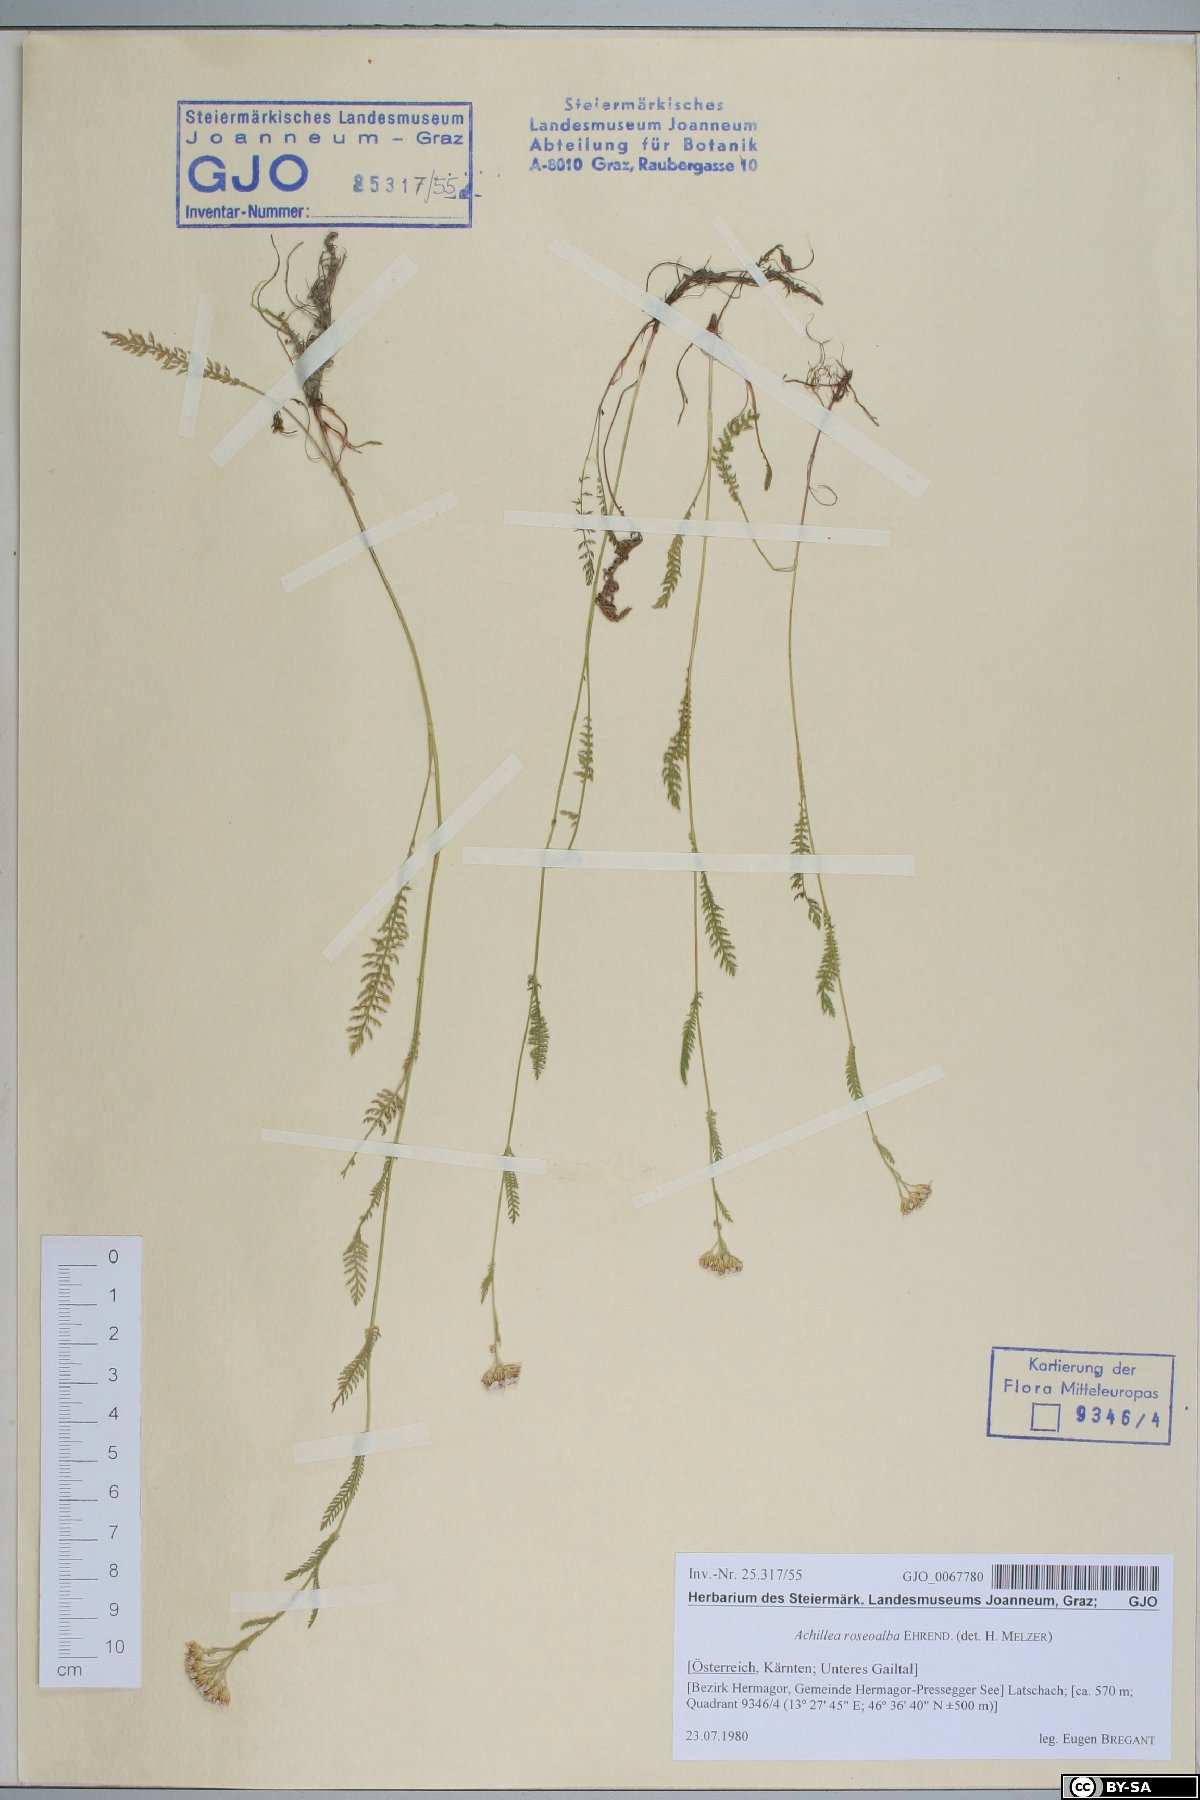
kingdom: Plantae
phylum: Tracheophyta
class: Magnoliopsida
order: Asterales
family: Asteraceae
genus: Achillea
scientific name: Achillea roseoalba
